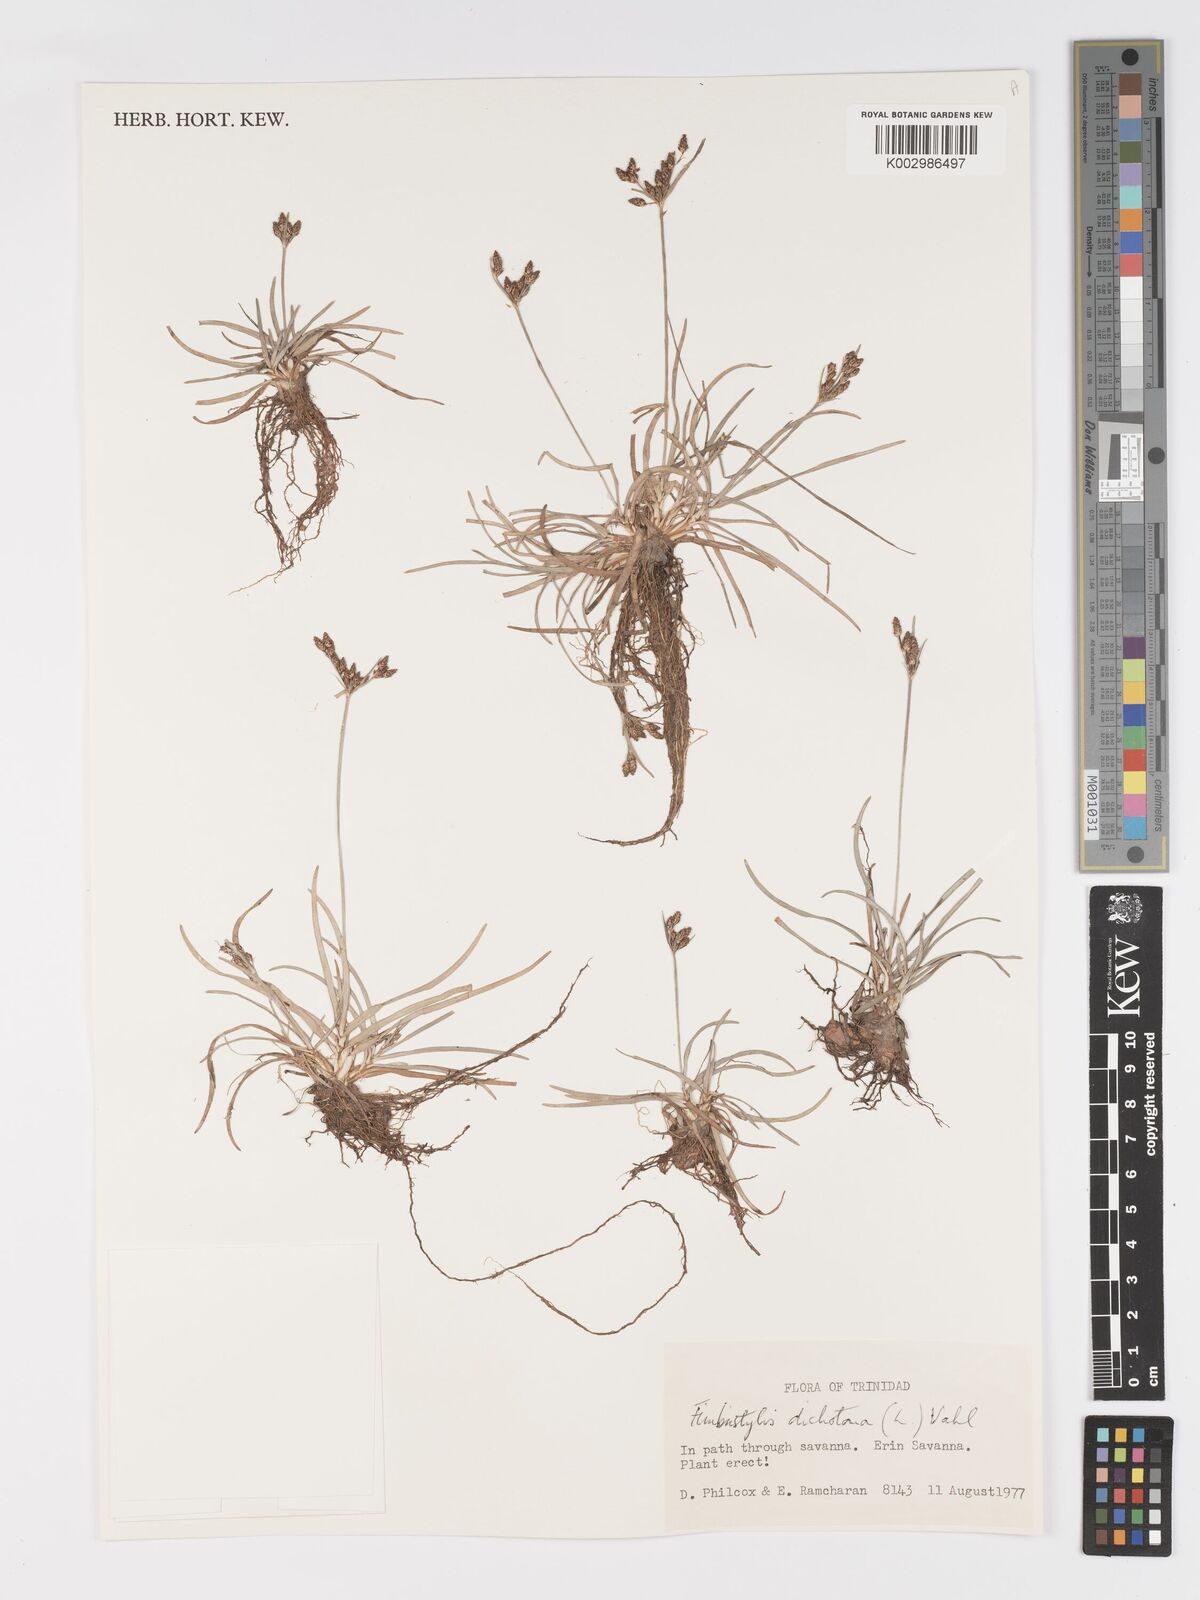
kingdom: Plantae
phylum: Tracheophyta
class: Liliopsida
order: Poales
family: Cyperaceae
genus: Fimbristylis
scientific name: Fimbristylis dichotoma
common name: Forked fimbry
